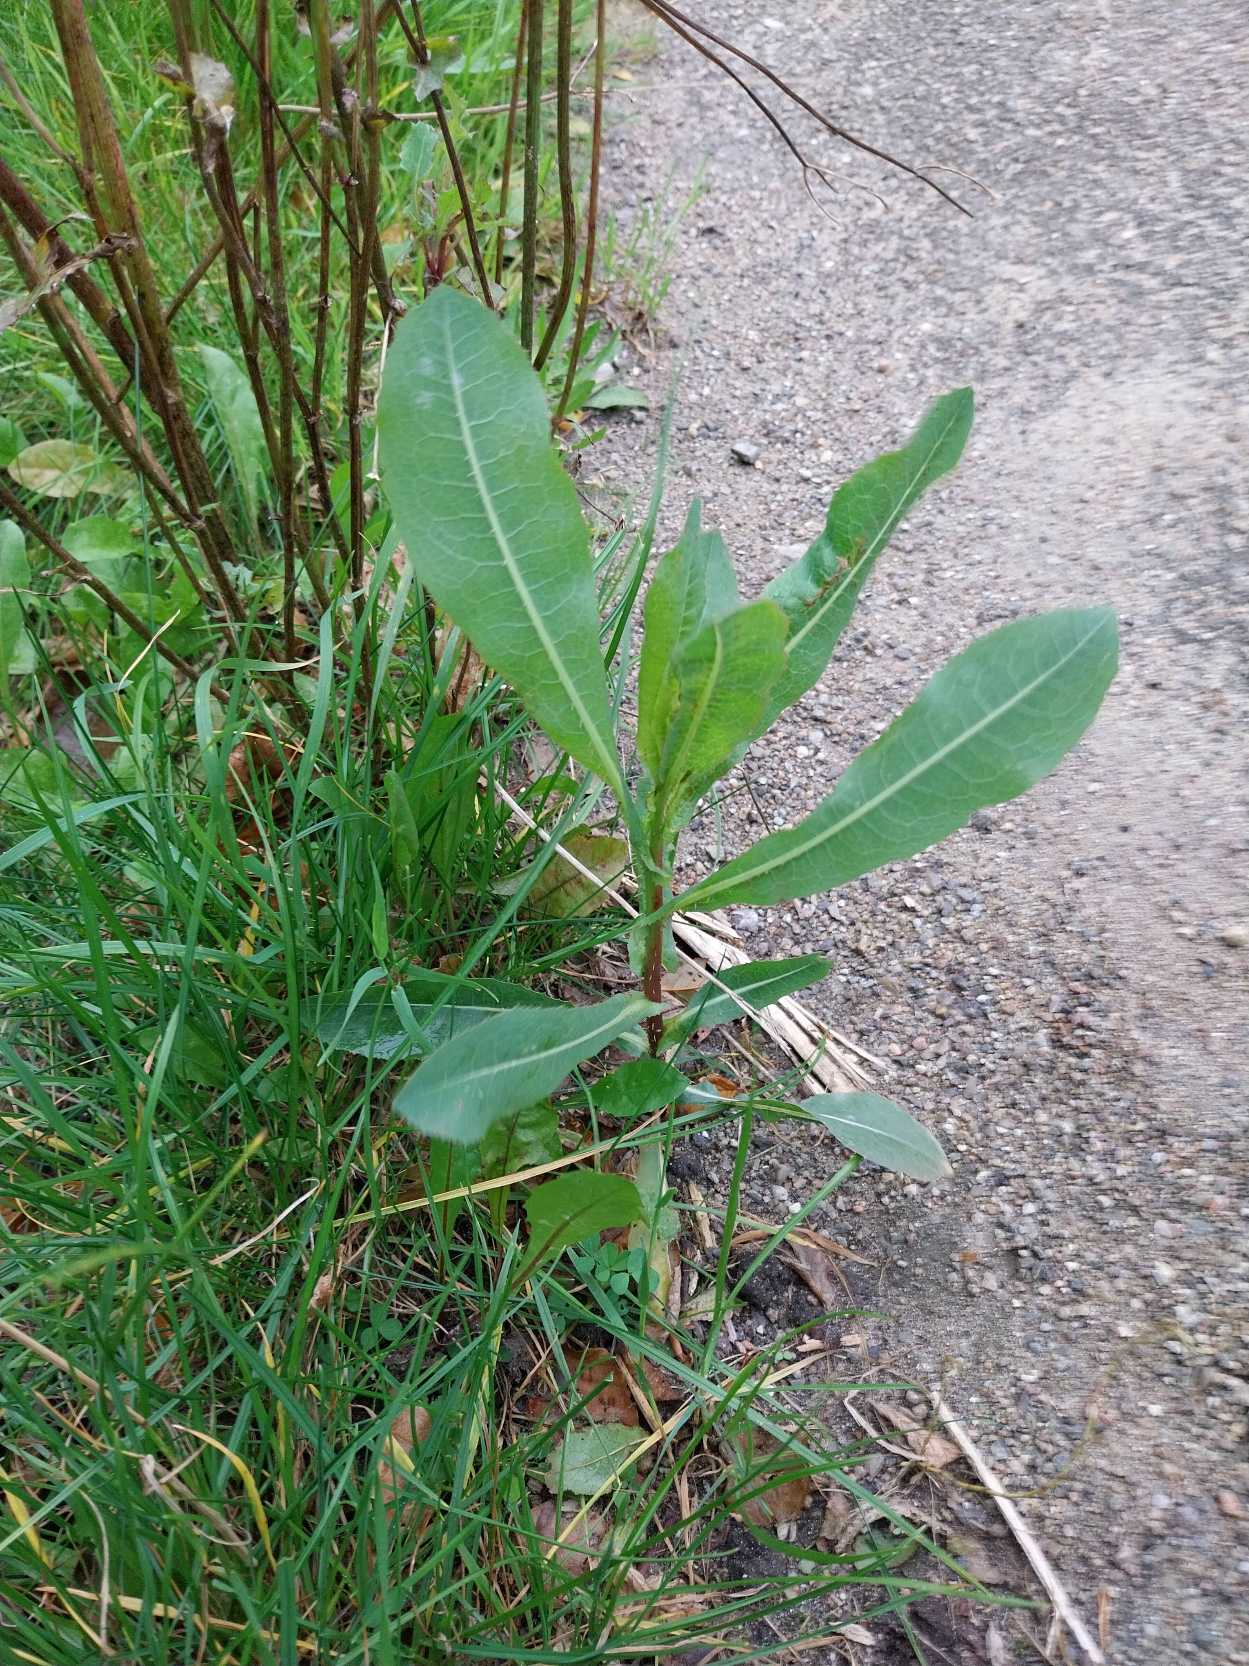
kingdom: Plantae
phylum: Tracheophyta
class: Magnoliopsida
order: Asterales
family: Asteraceae
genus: Lactuca
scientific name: Lactuca serriola
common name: Tornet salat
